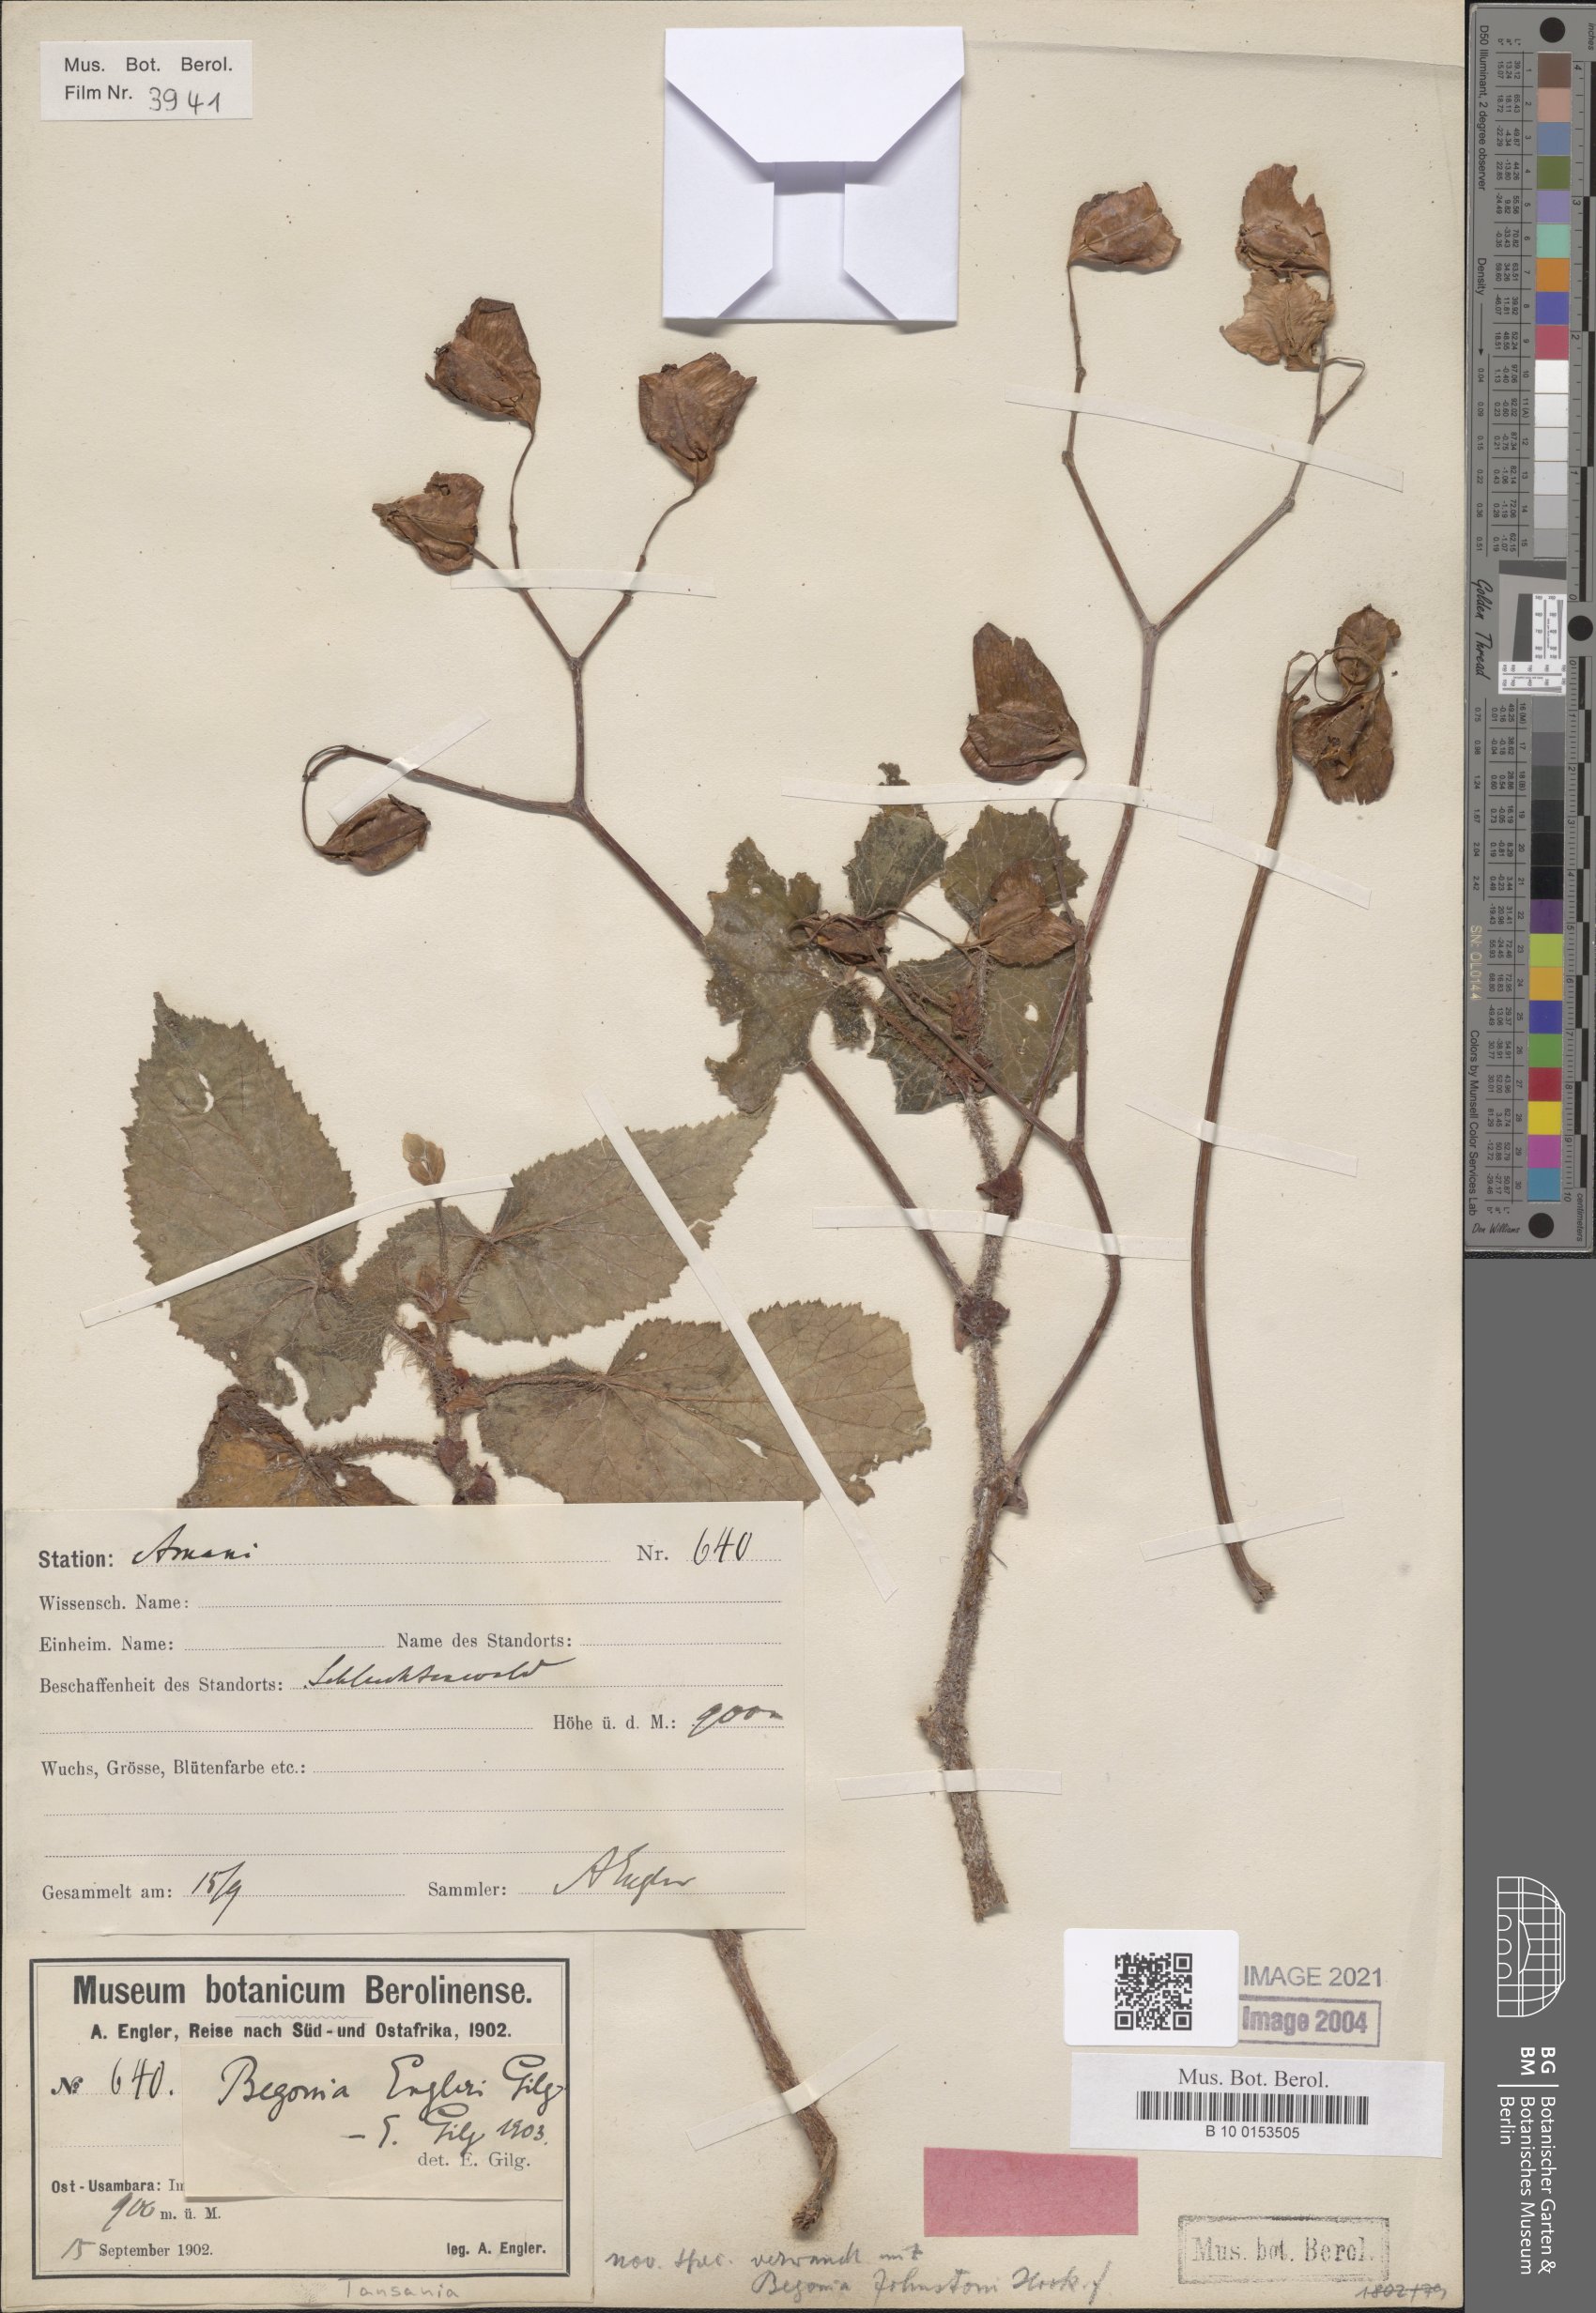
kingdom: Plantae
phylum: Tracheophyta
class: Magnoliopsida
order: Cucurbitales
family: Begoniaceae
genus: Begonia
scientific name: Begonia engleri
